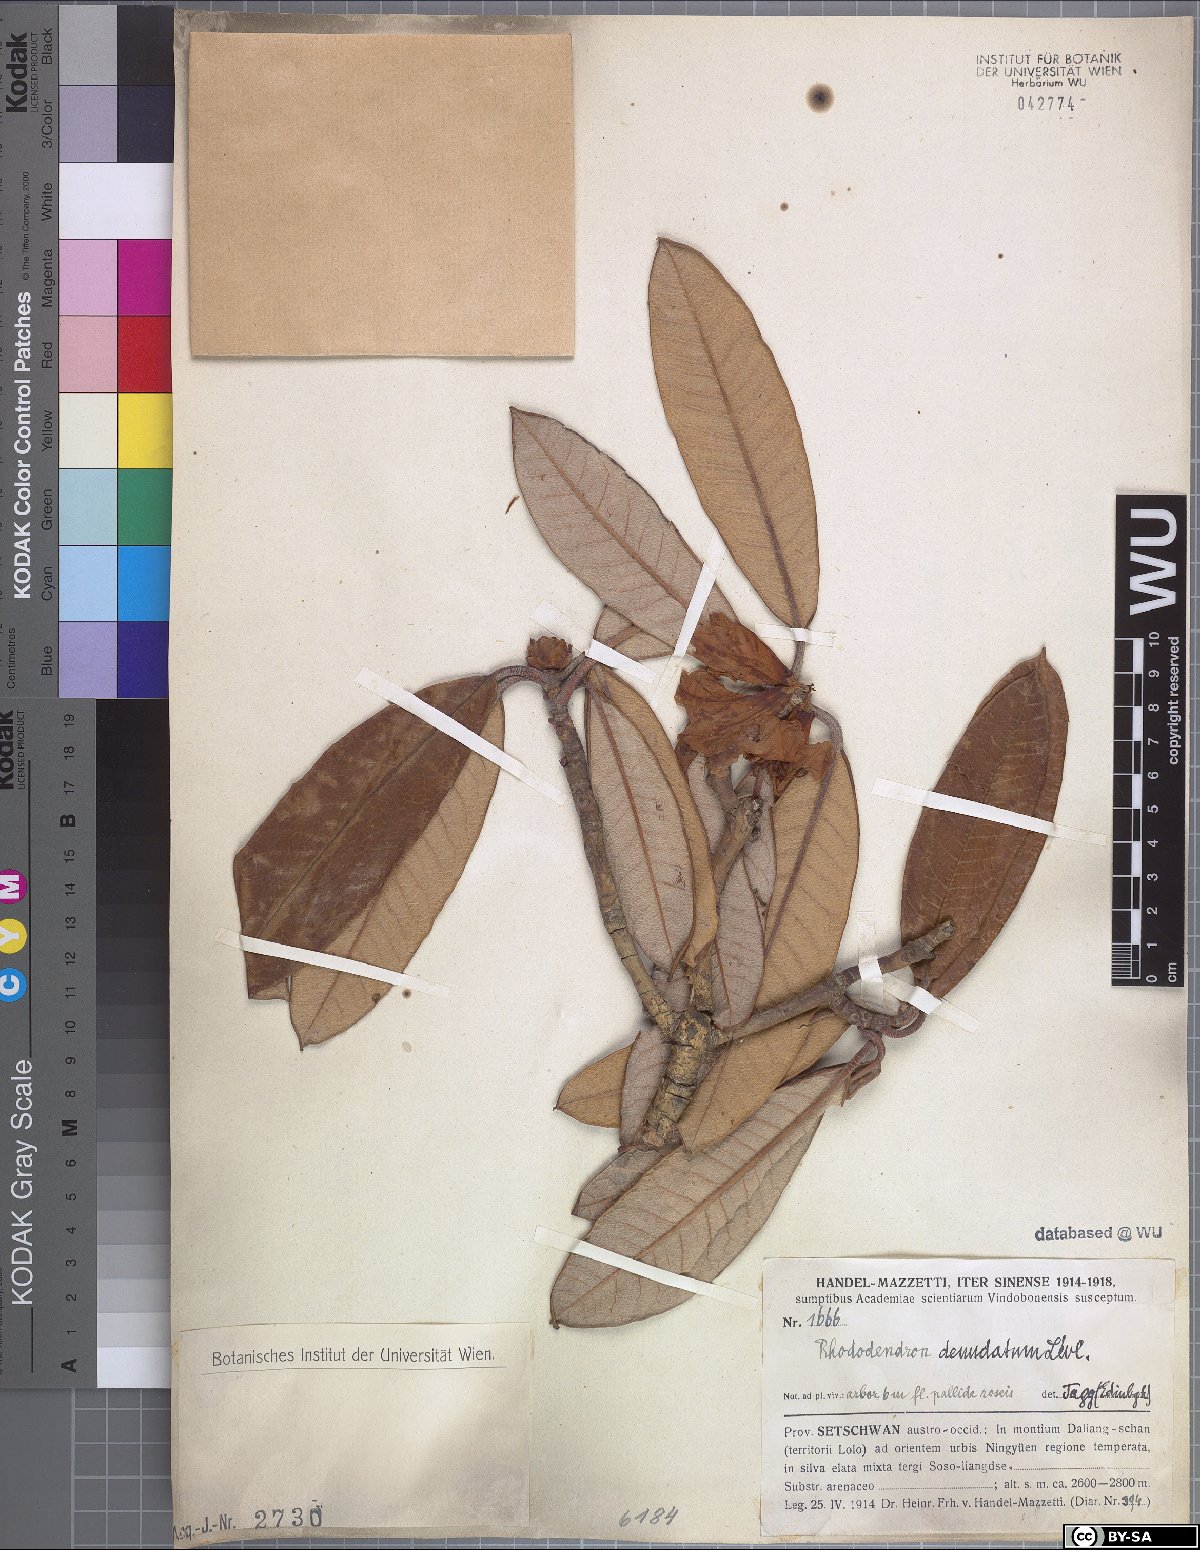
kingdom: Plantae
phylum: Tracheophyta
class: Magnoliopsida
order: Ericales
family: Ericaceae
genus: Rhododendron
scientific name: Rhododendron denudatum
